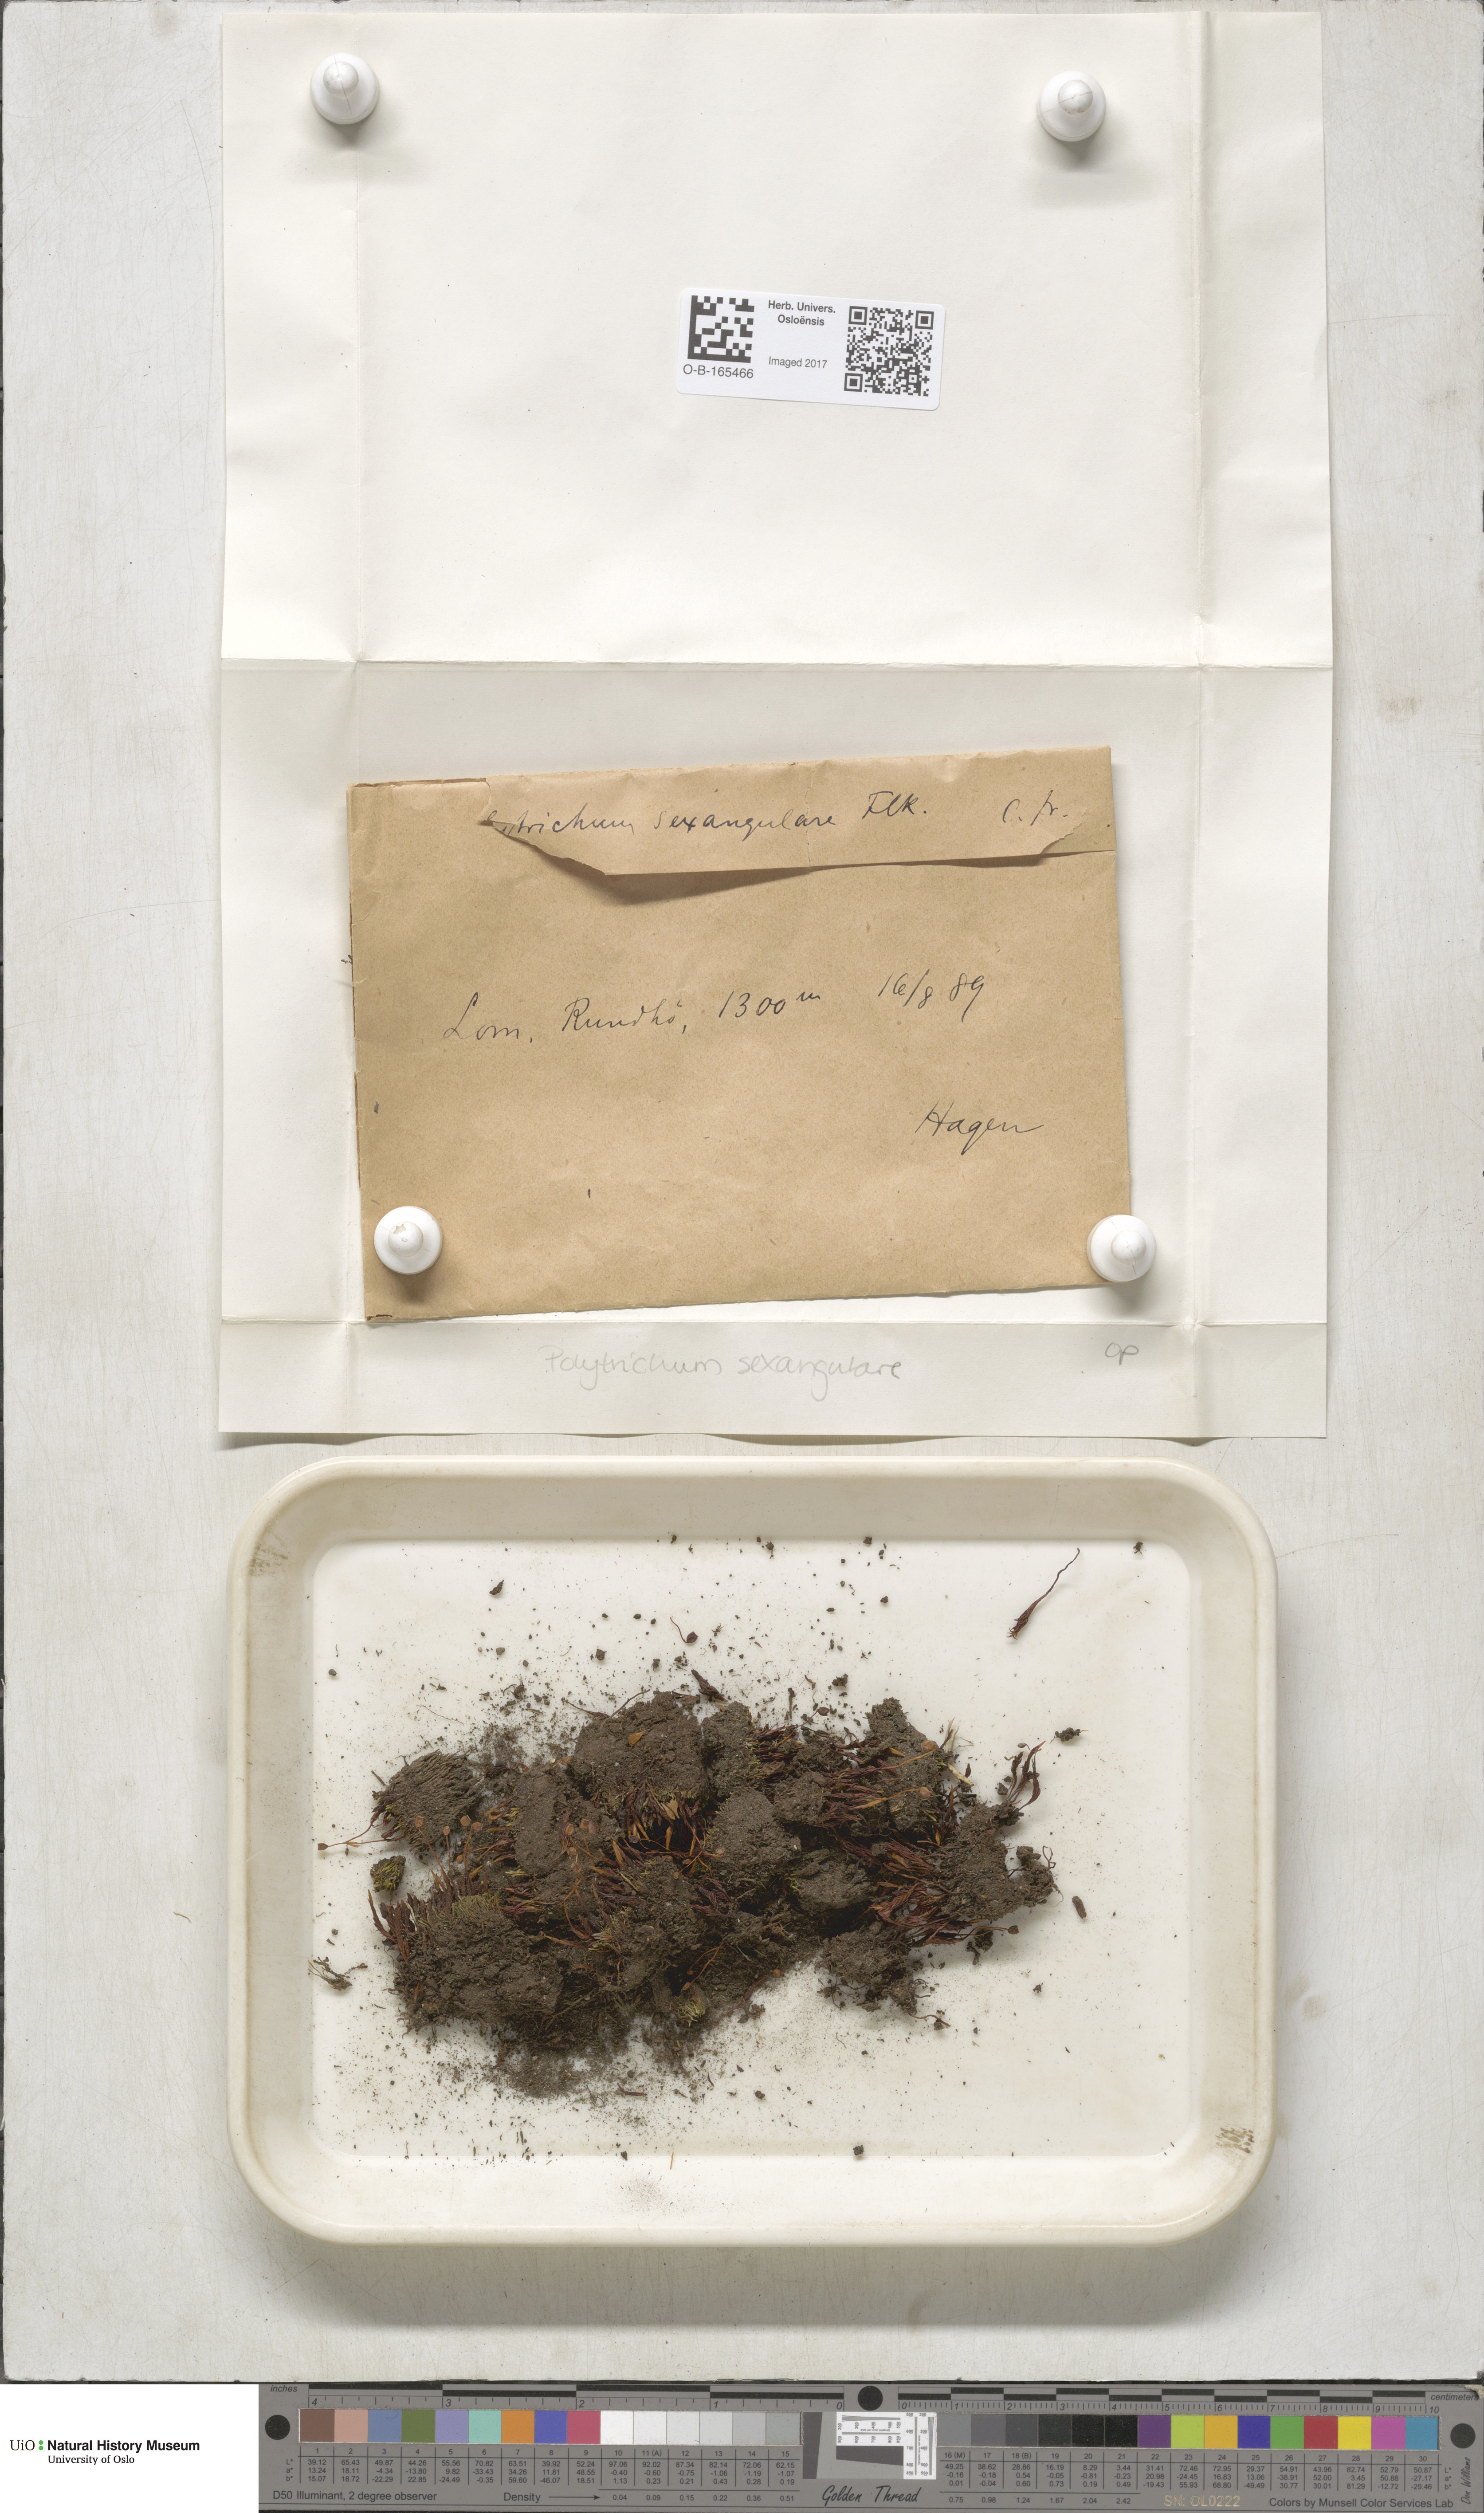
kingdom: Plantae
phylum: Bryophyta
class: Polytrichopsida
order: Polytrichales
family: Polytrichaceae
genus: Polytrichastrum
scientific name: Polytrichastrum sexangulare
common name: Northern haircap
